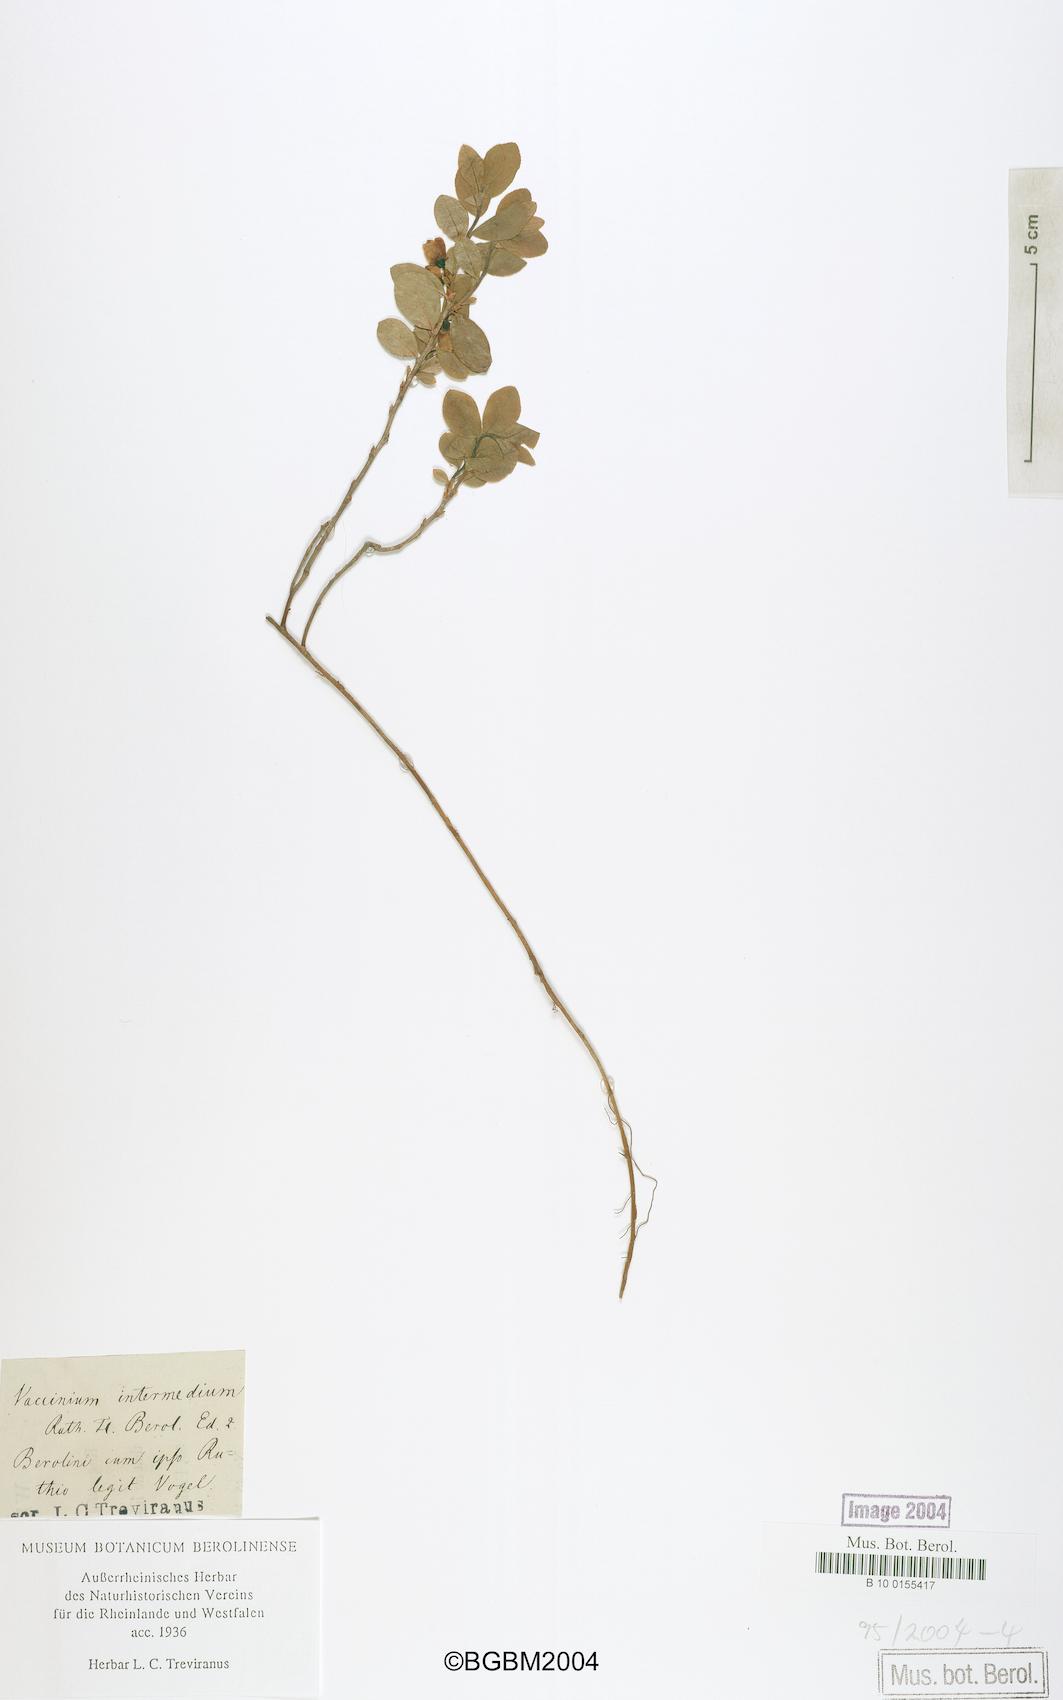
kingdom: Plantae
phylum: Tracheophyta
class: Magnoliopsida
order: Ericales
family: Ericaceae
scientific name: Ericaceae
